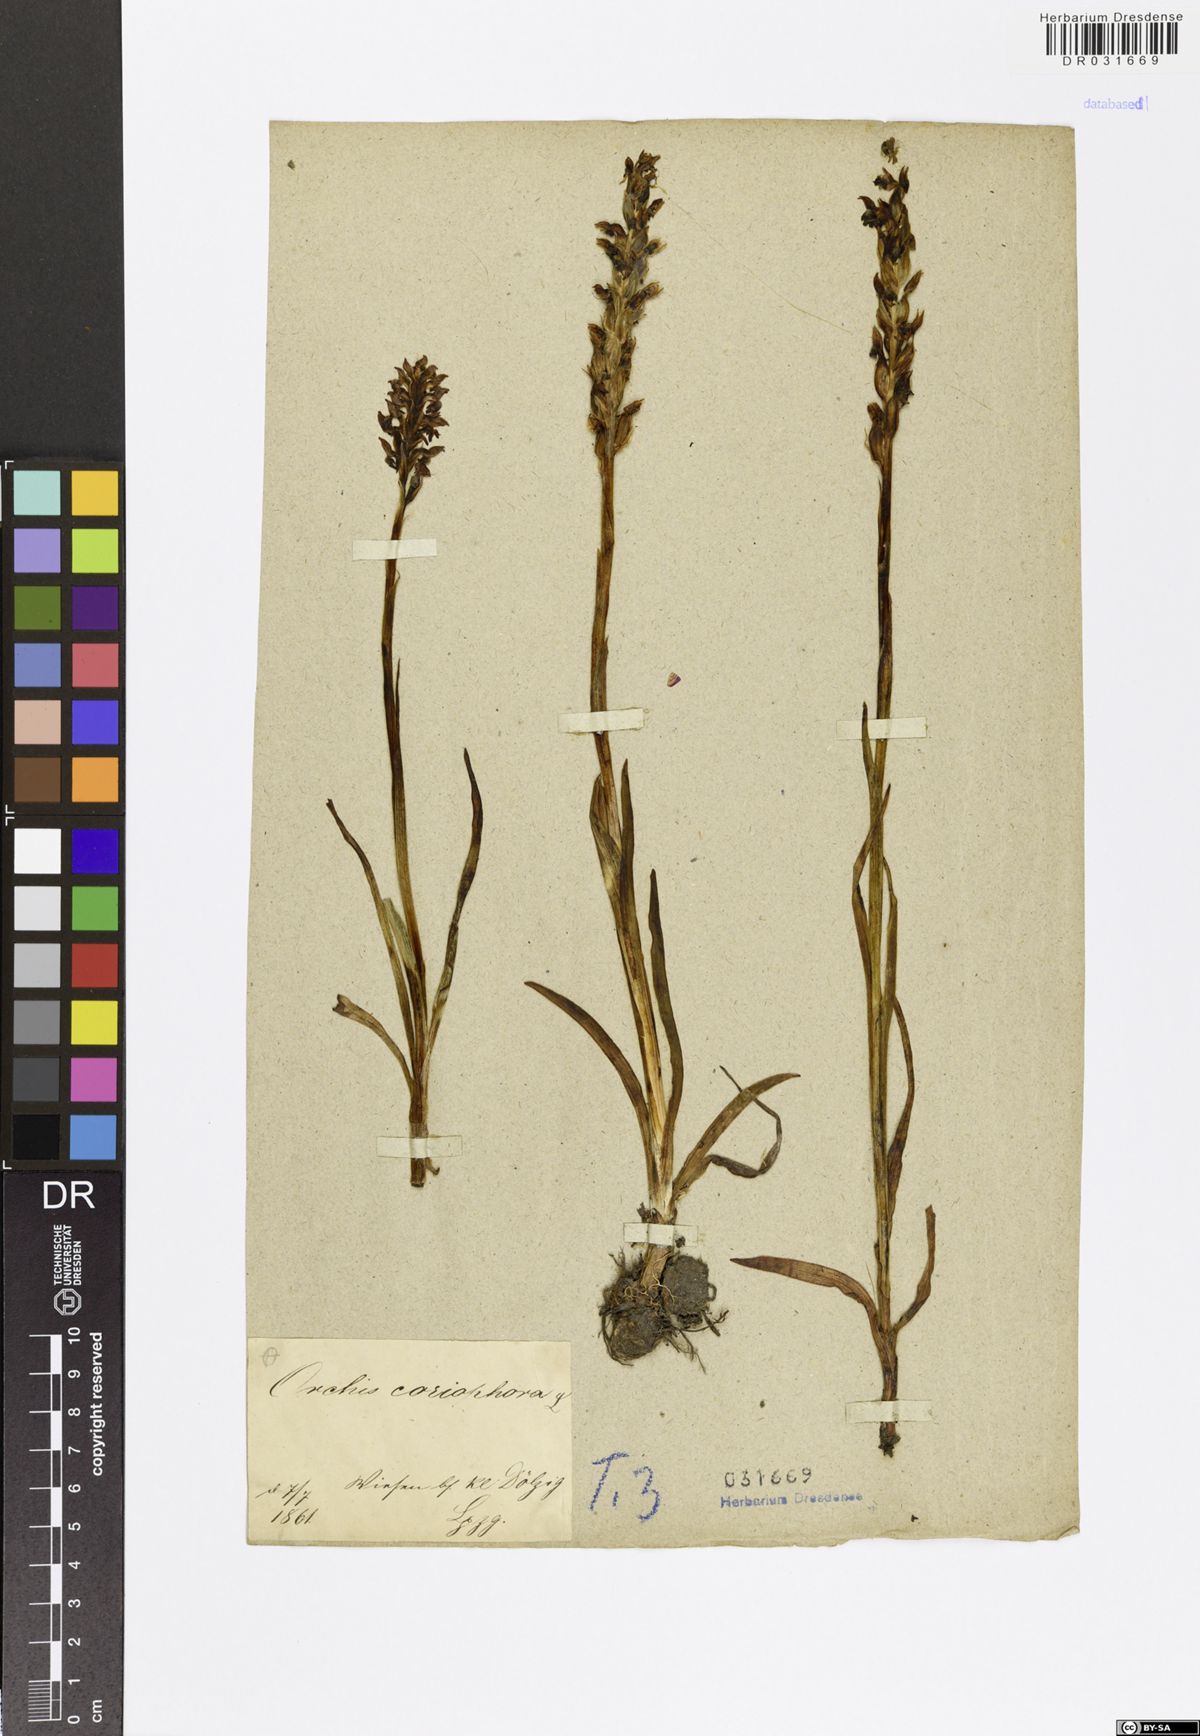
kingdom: Plantae
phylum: Tracheophyta
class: Liliopsida
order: Asparagales
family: Orchidaceae
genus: Anacamptis
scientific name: Anacamptis coriophora
